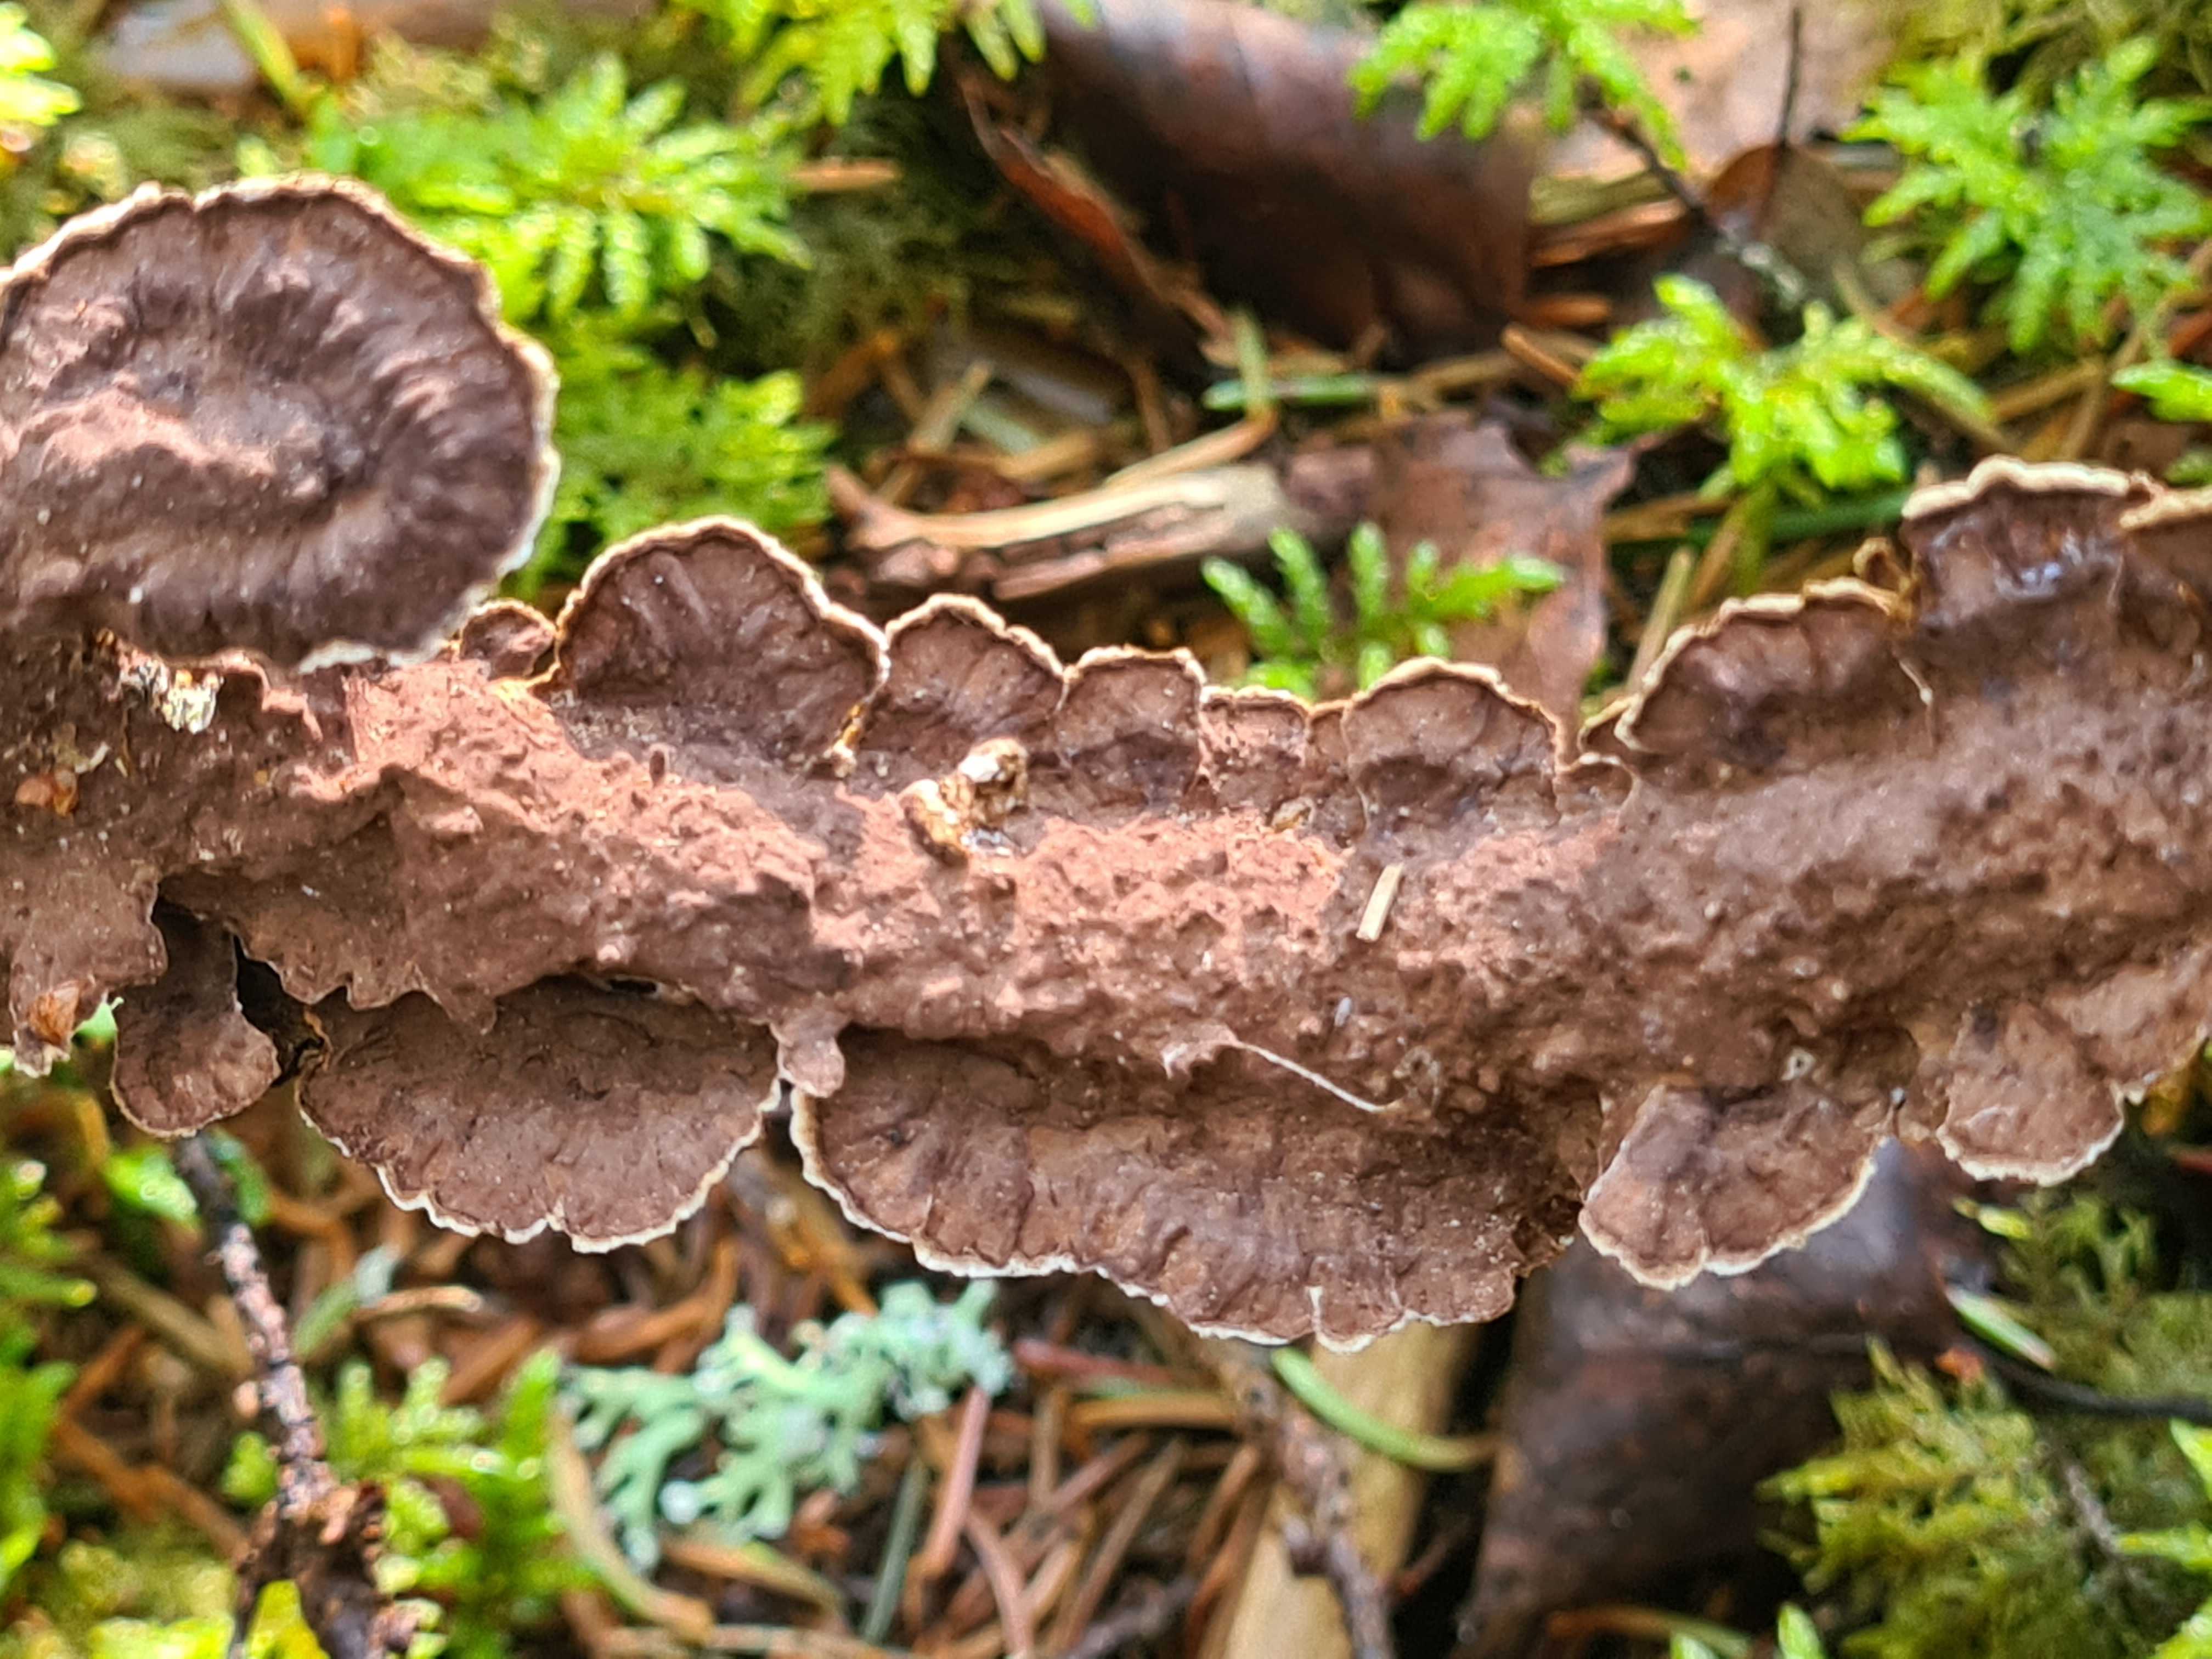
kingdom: Fungi
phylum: Basidiomycota
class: Agaricomycetes
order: Hymenochaetales
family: Hymenochaetaceae
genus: Hydnoporia
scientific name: Hydnoporia tabacina
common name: tobaksbrun ruslædersvamp
